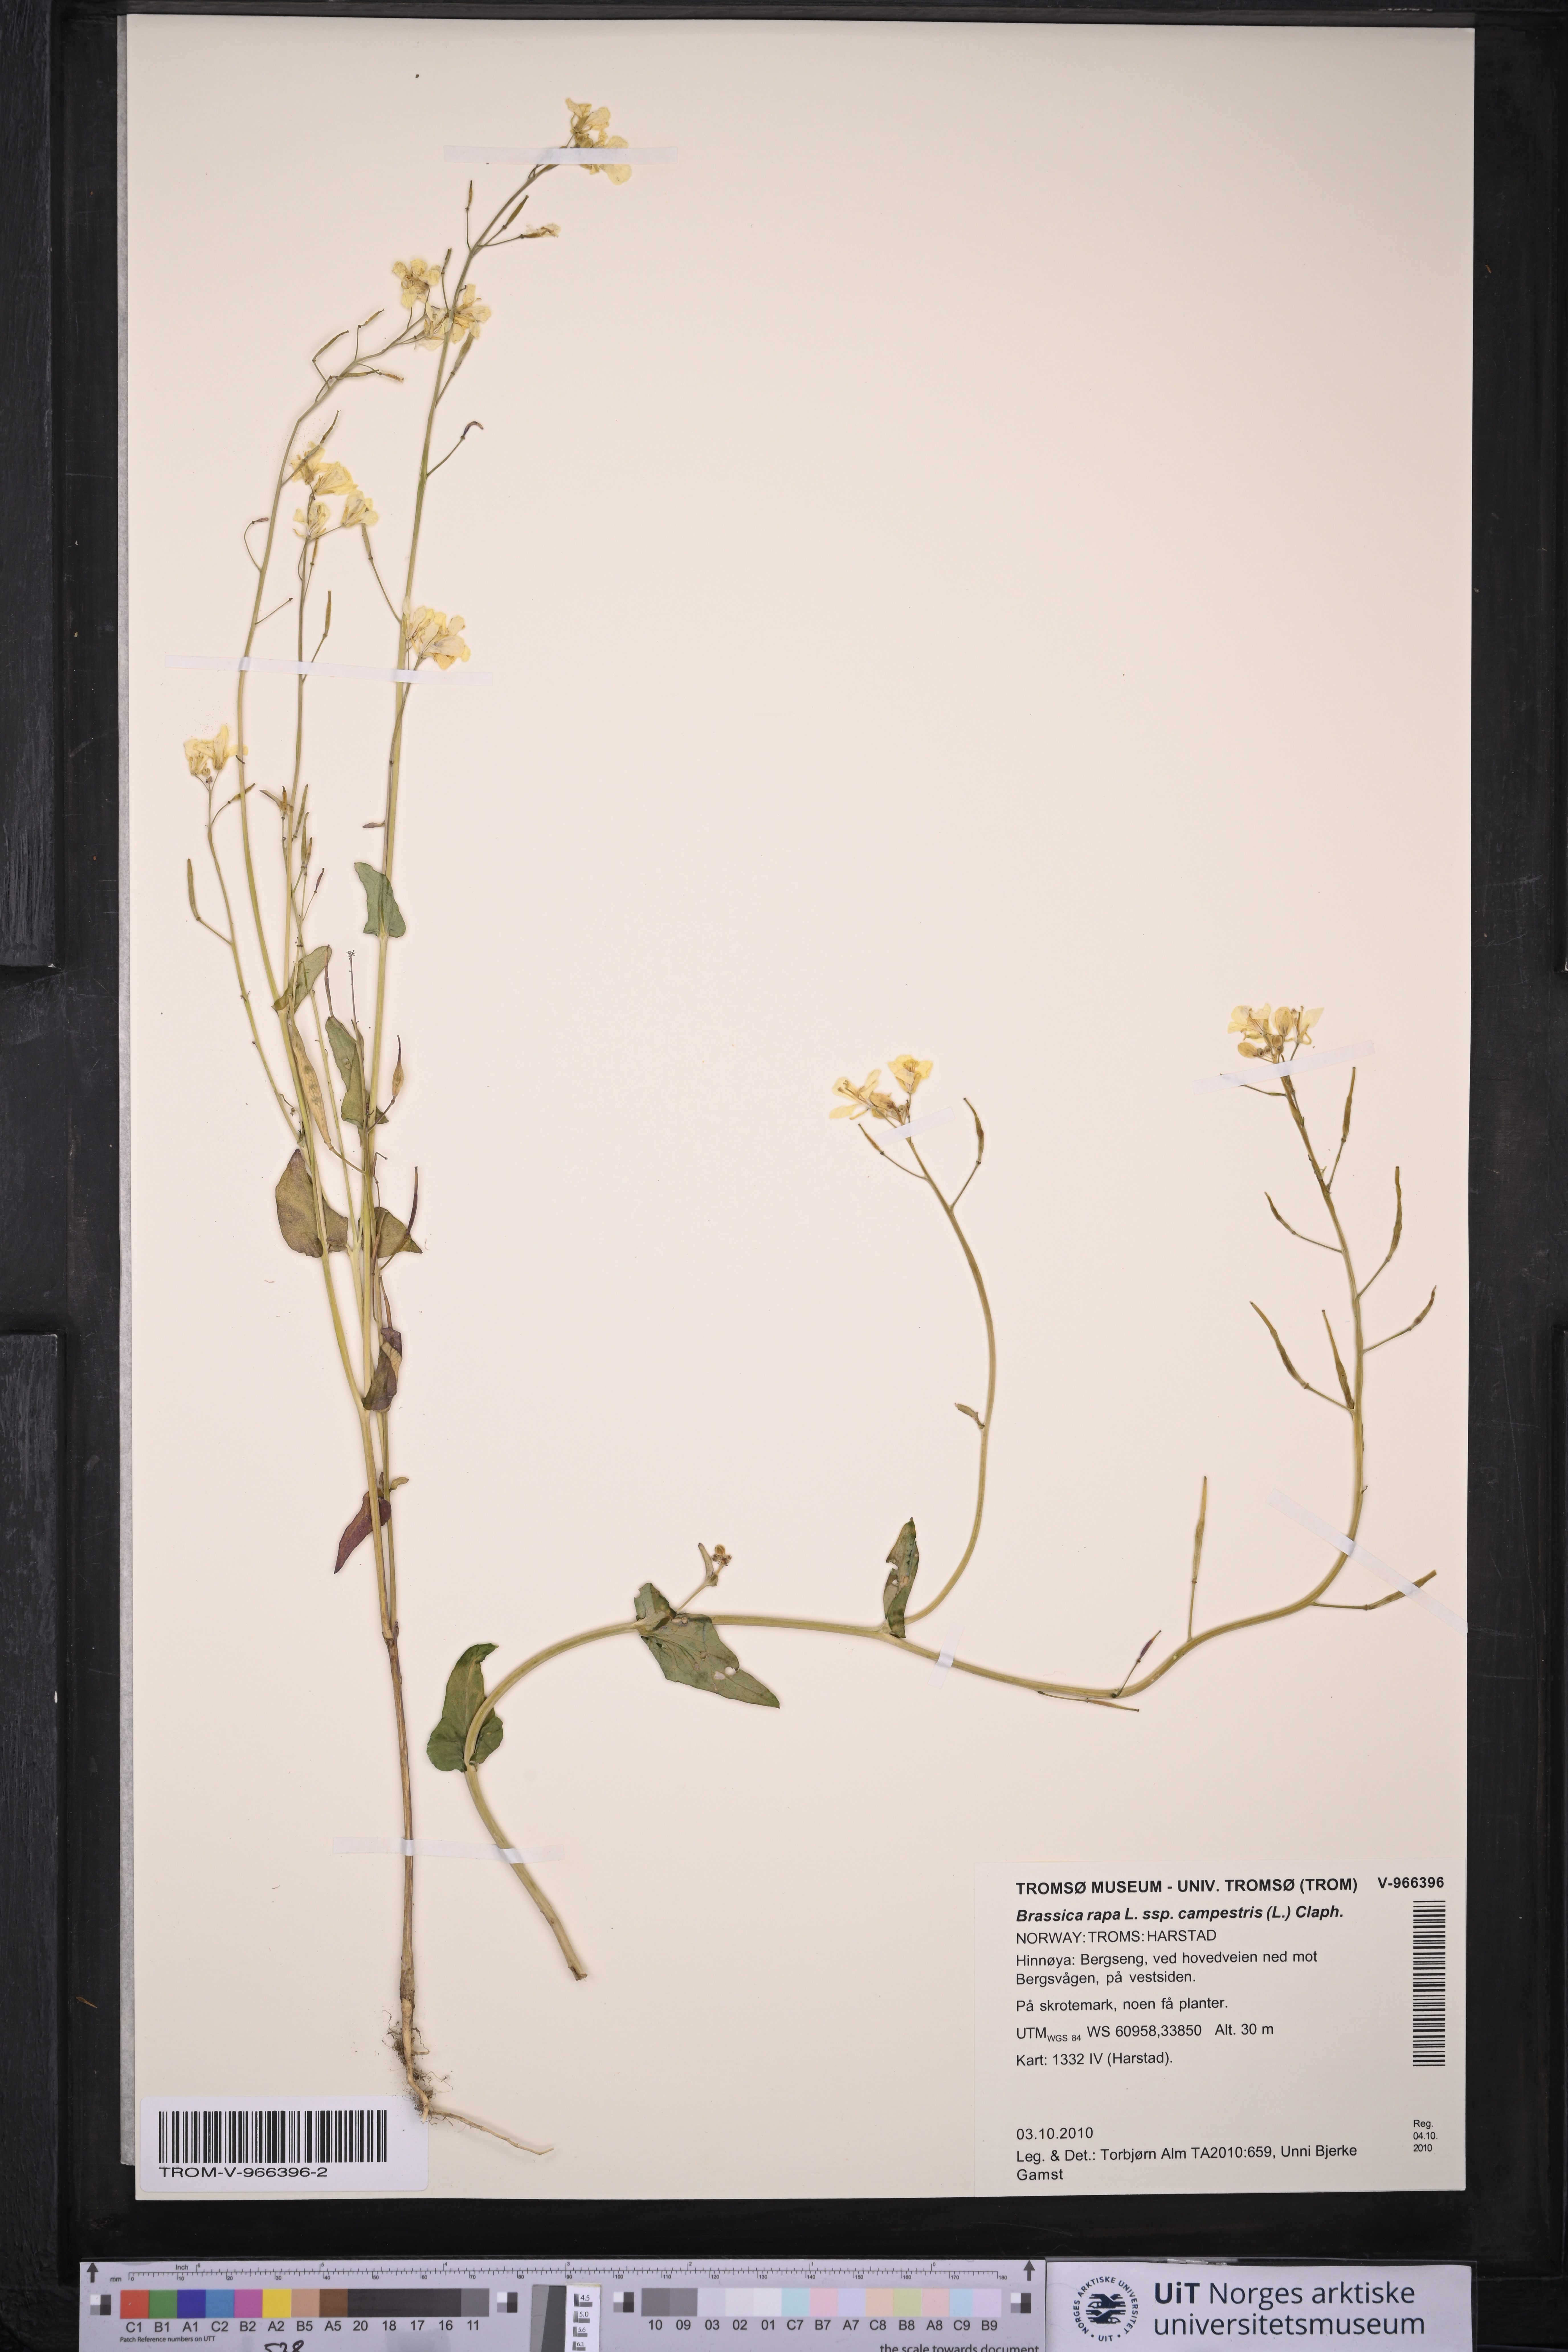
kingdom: Plantae
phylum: Tracheophyta
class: Magnoliopsida
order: Brassicales
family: Brassicaceae
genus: Brassica
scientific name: Brassica rapa
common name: Field mustard
